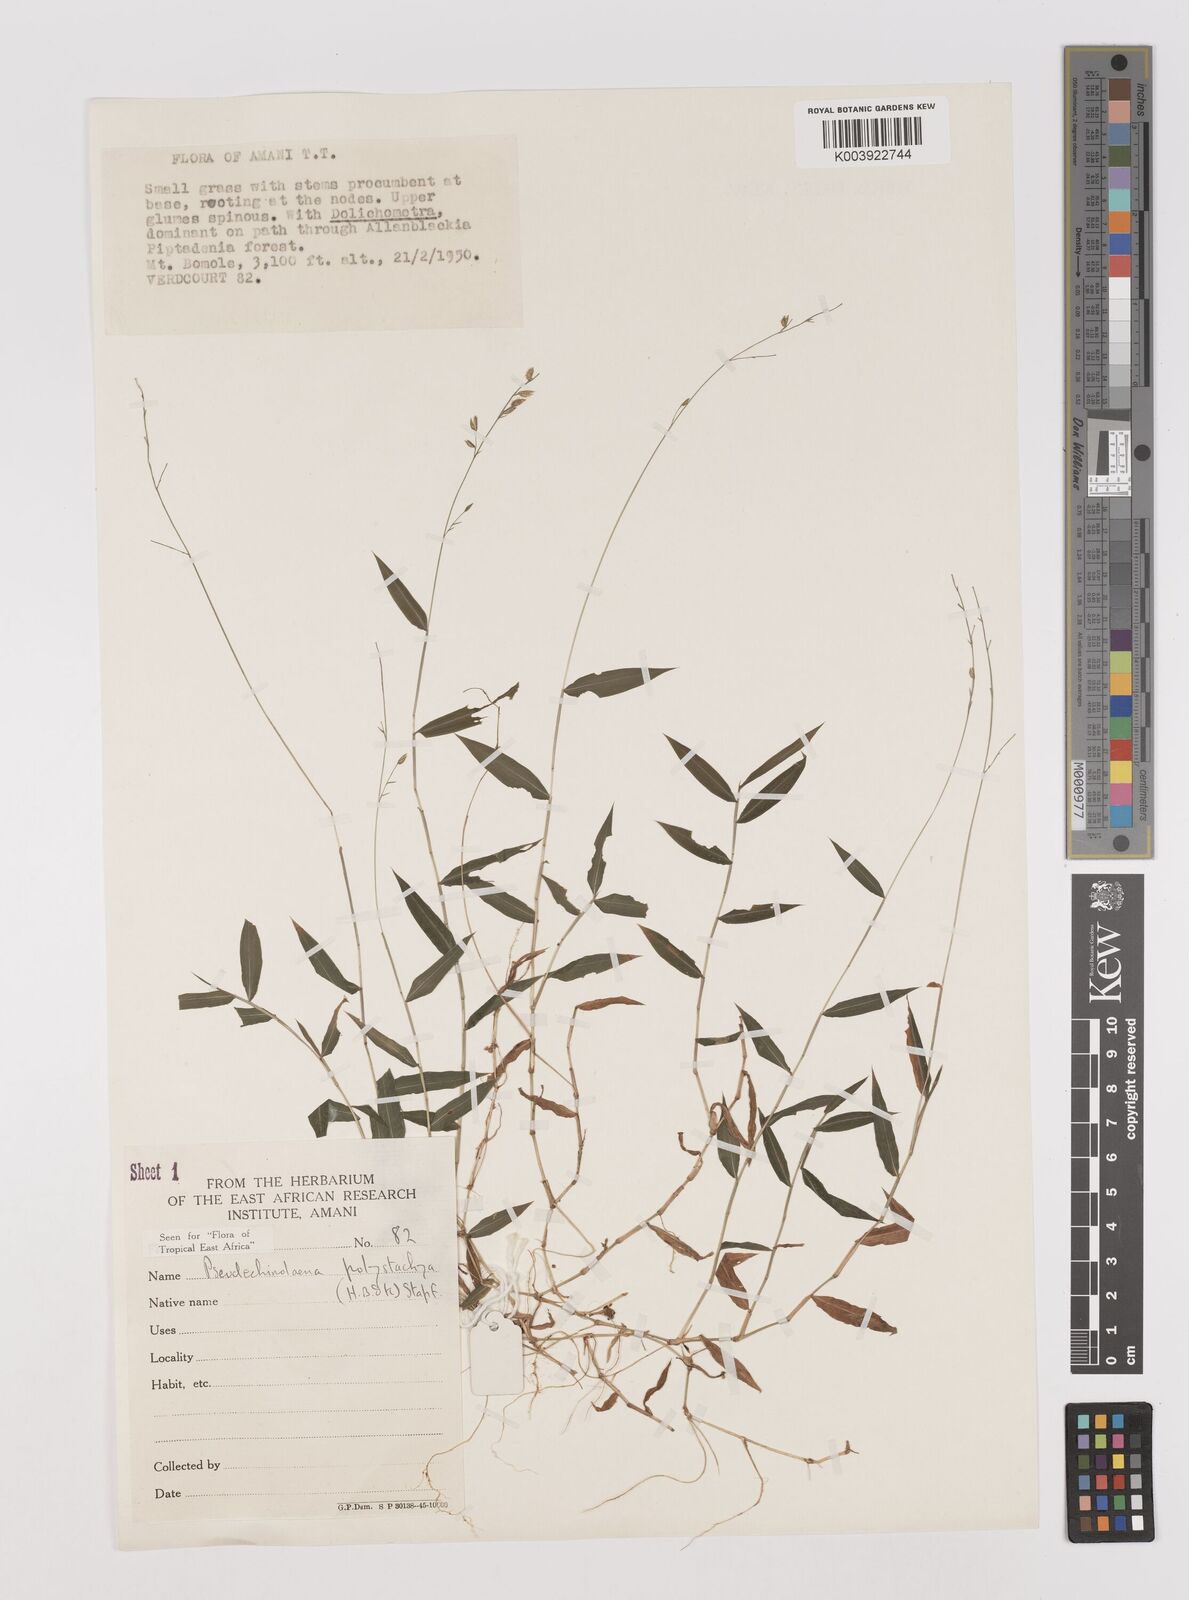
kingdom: Plantae
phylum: Tracheophyta
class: Liliopsida
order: Poales
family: Poaceae
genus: Pseudechinolaena
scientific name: Pseudechinolaena polystachya
